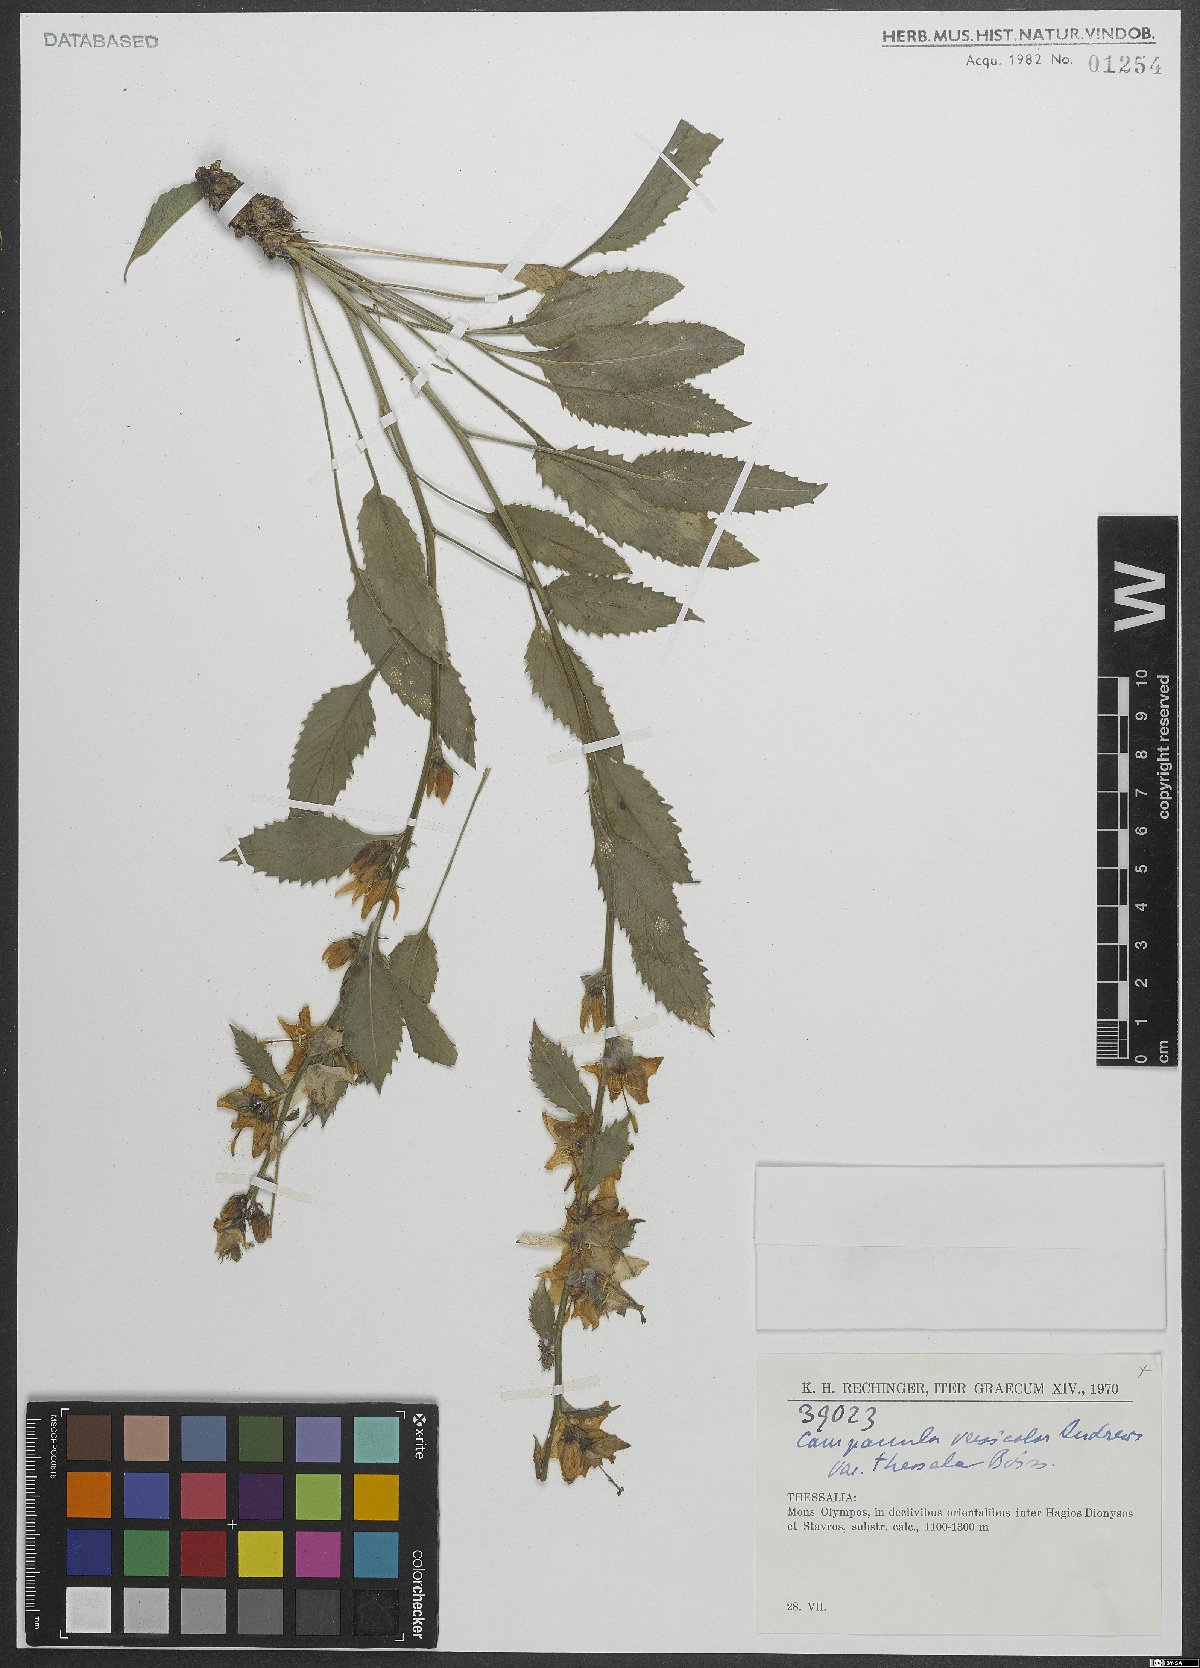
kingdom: Plantae
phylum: Tracheophyta
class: Magnoliopsida
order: Asterales
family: Campanulaceae
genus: Campanula
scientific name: Campanula versicolor
